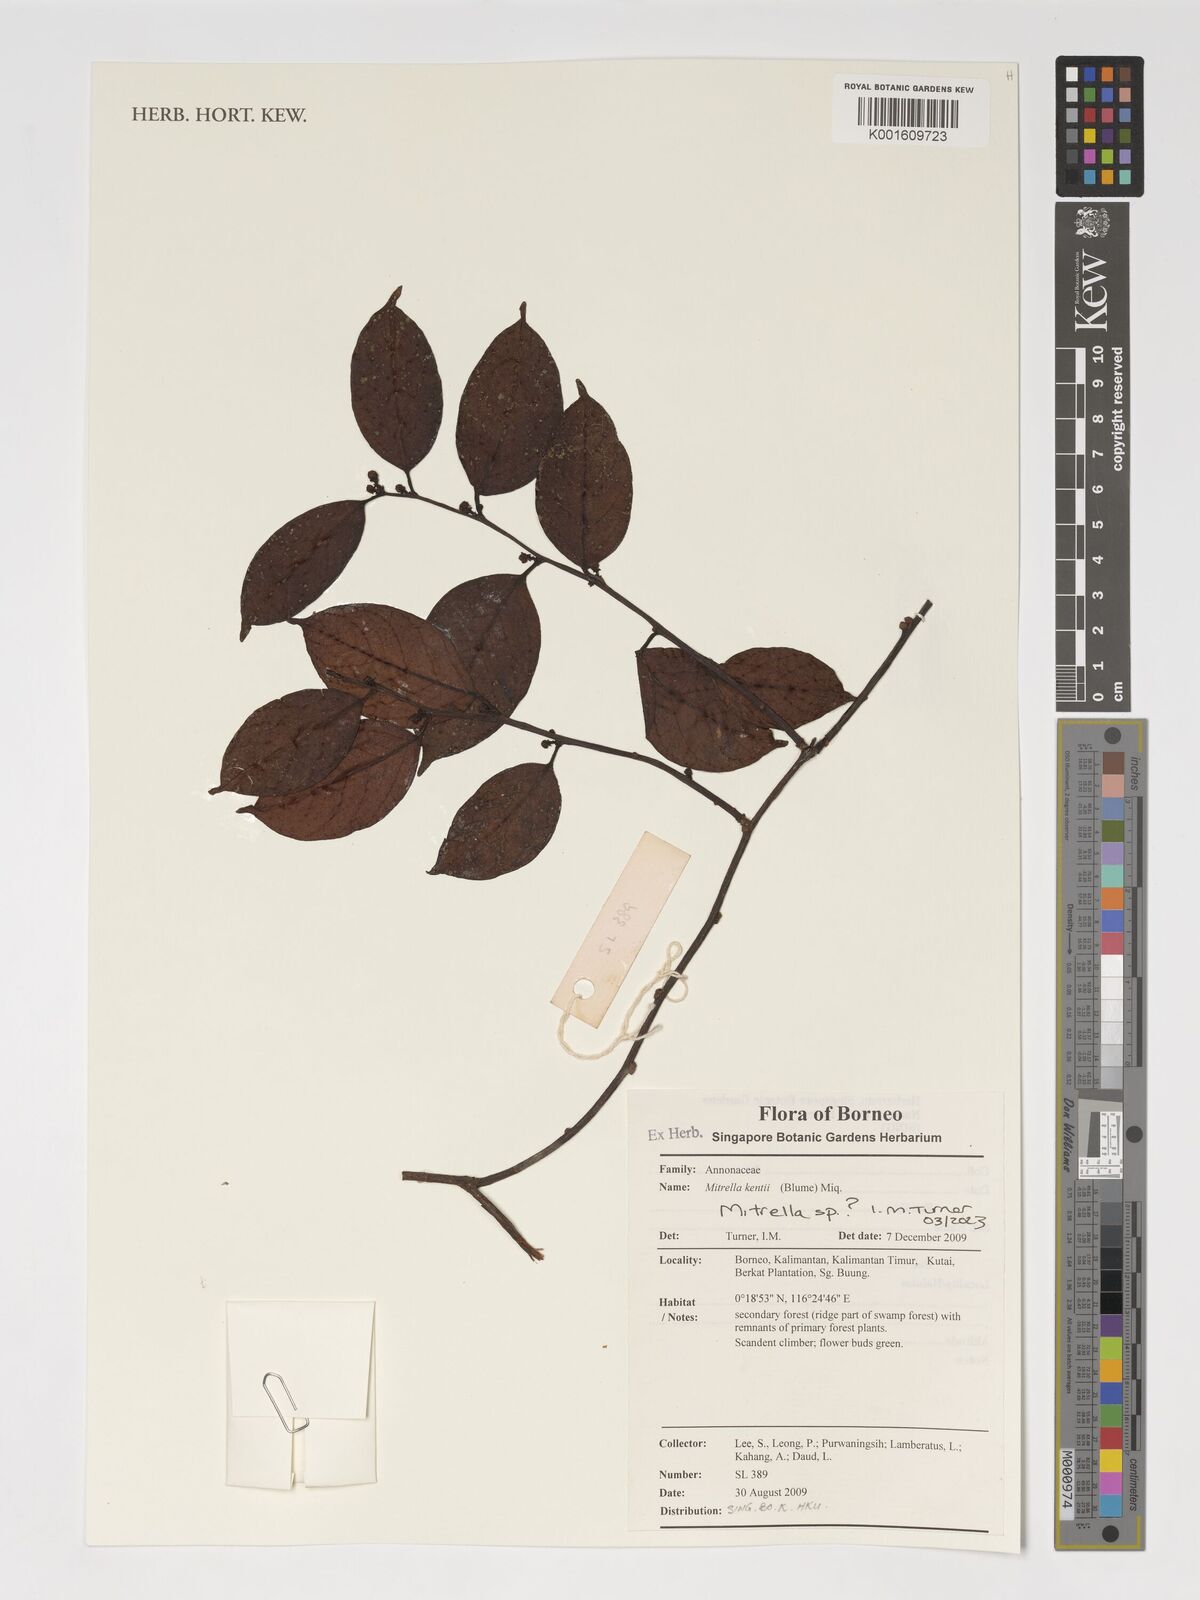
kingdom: Plantae
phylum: Tracheophyta
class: Magnoliopsida
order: Magnoliales
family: Annonaceae
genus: Mitrella
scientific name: Mitrella
